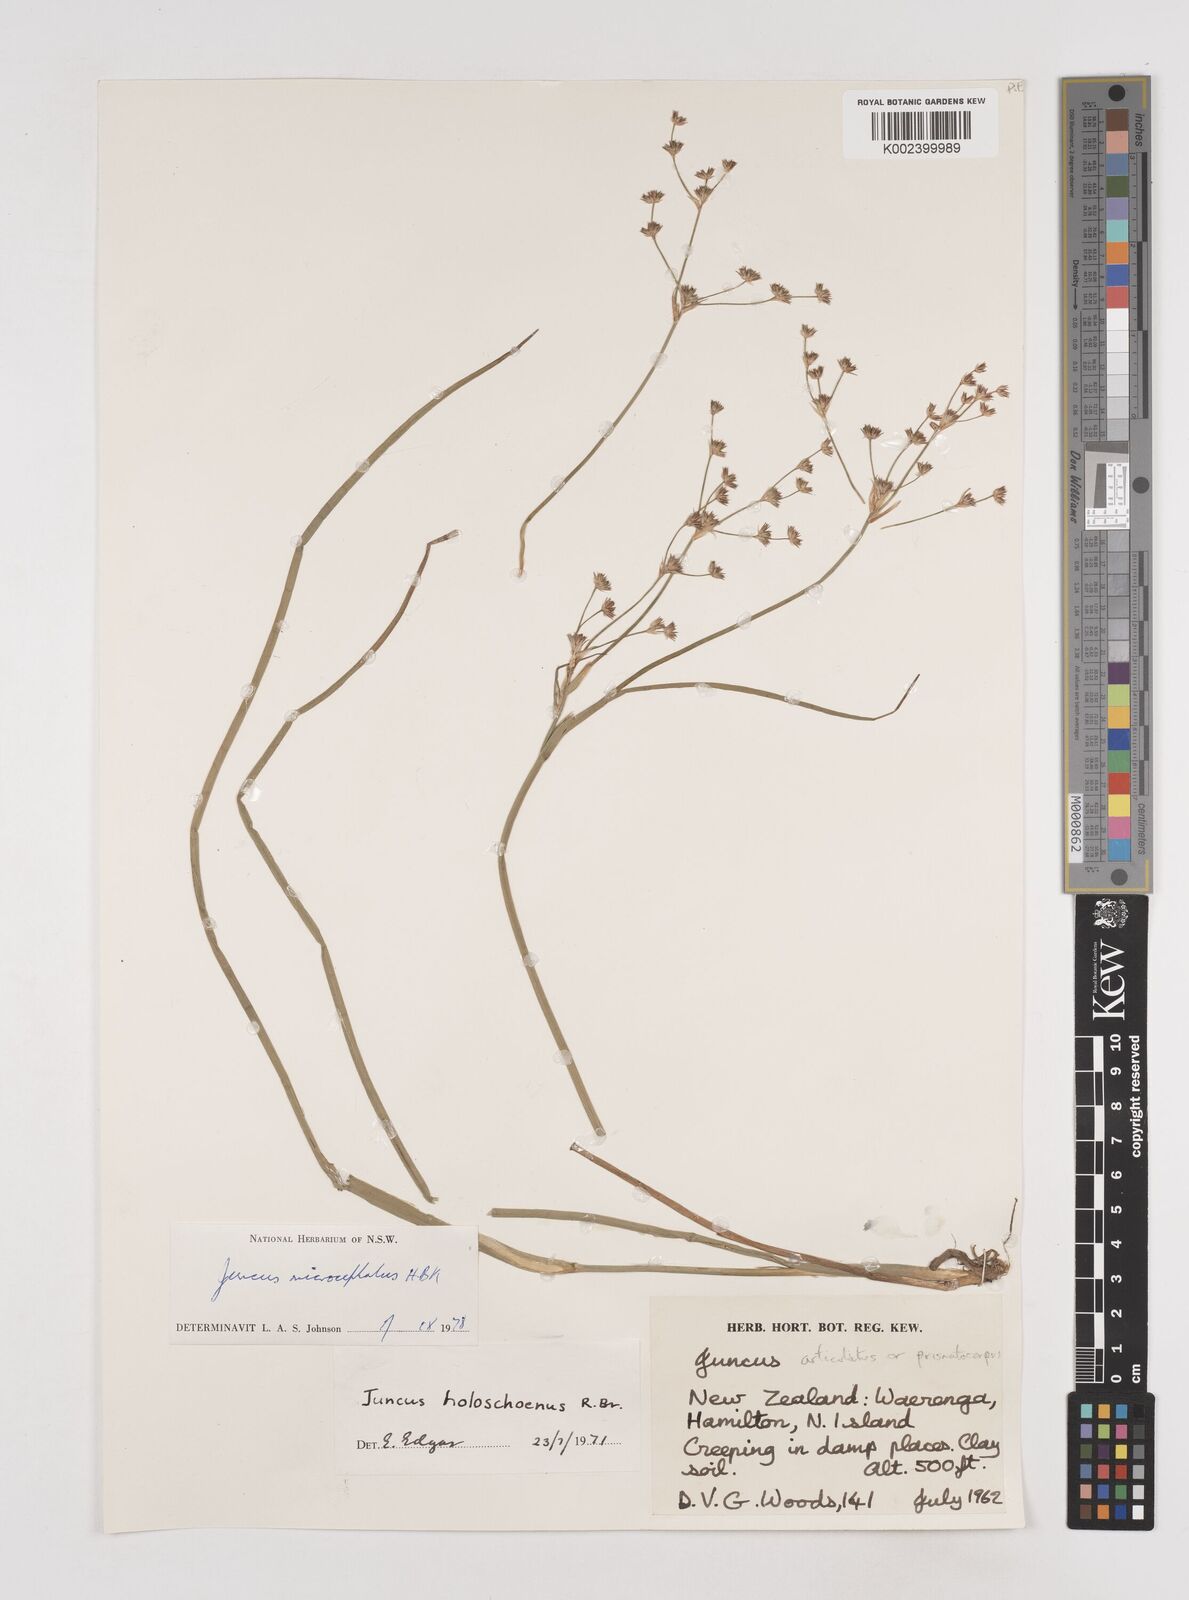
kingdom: Plantae
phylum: Tracheophyta
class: Liliopsida
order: Poales
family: Juncaceae
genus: Juncus
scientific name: Juncus microcephalus
